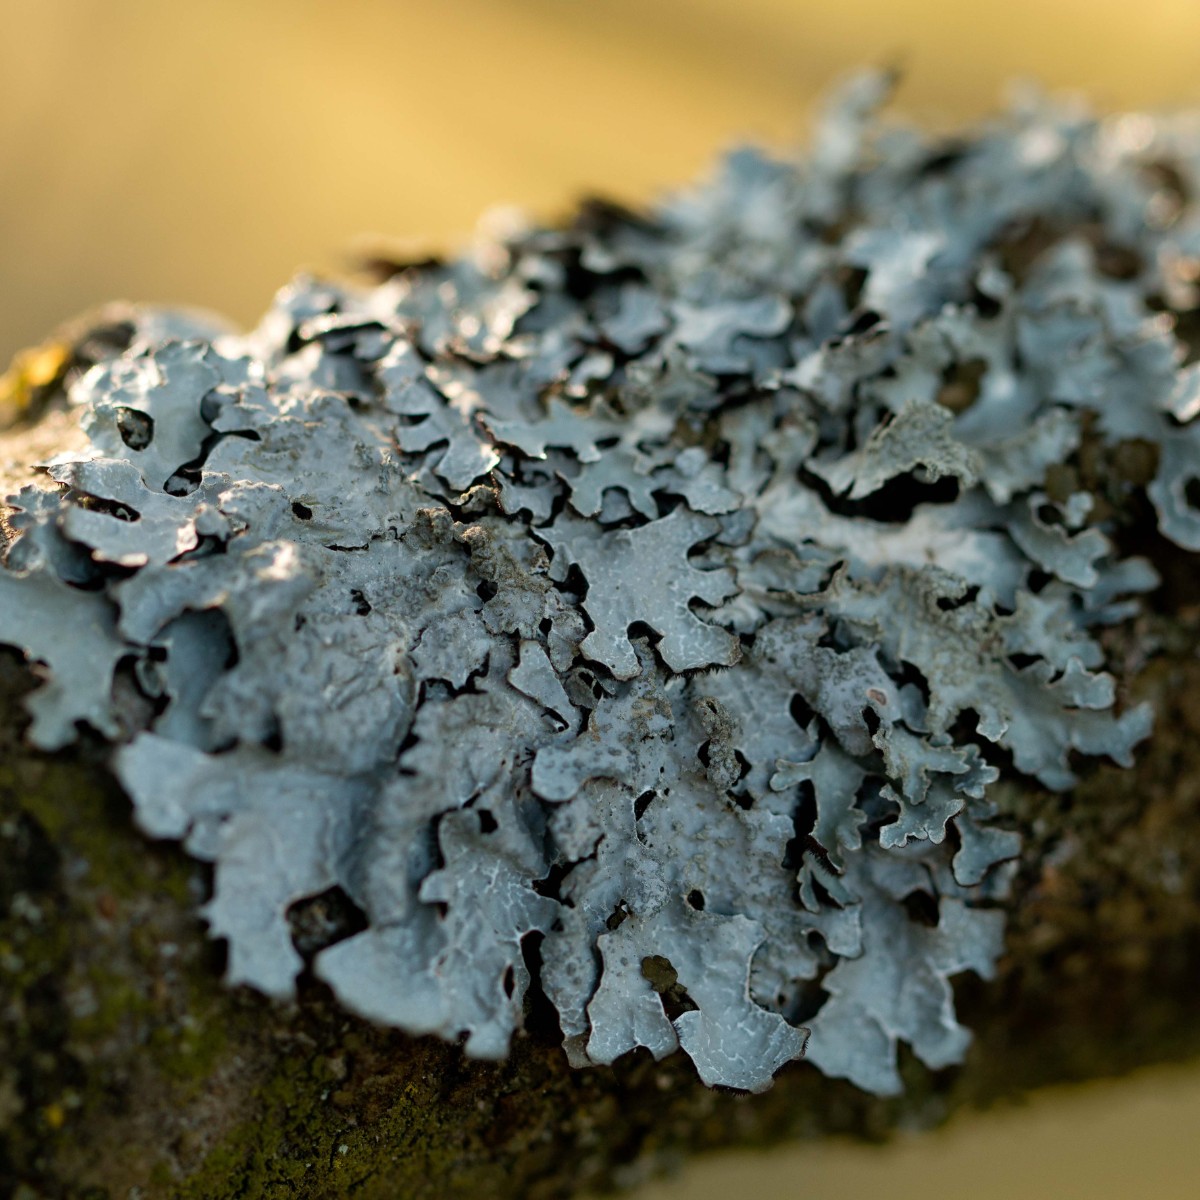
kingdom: Fungi
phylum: Ascomycota
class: Lecanoromycetes
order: Lecanorales
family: Parmeliaceae
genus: Parmelia
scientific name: Parmelia sulcata
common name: rynket skållav
